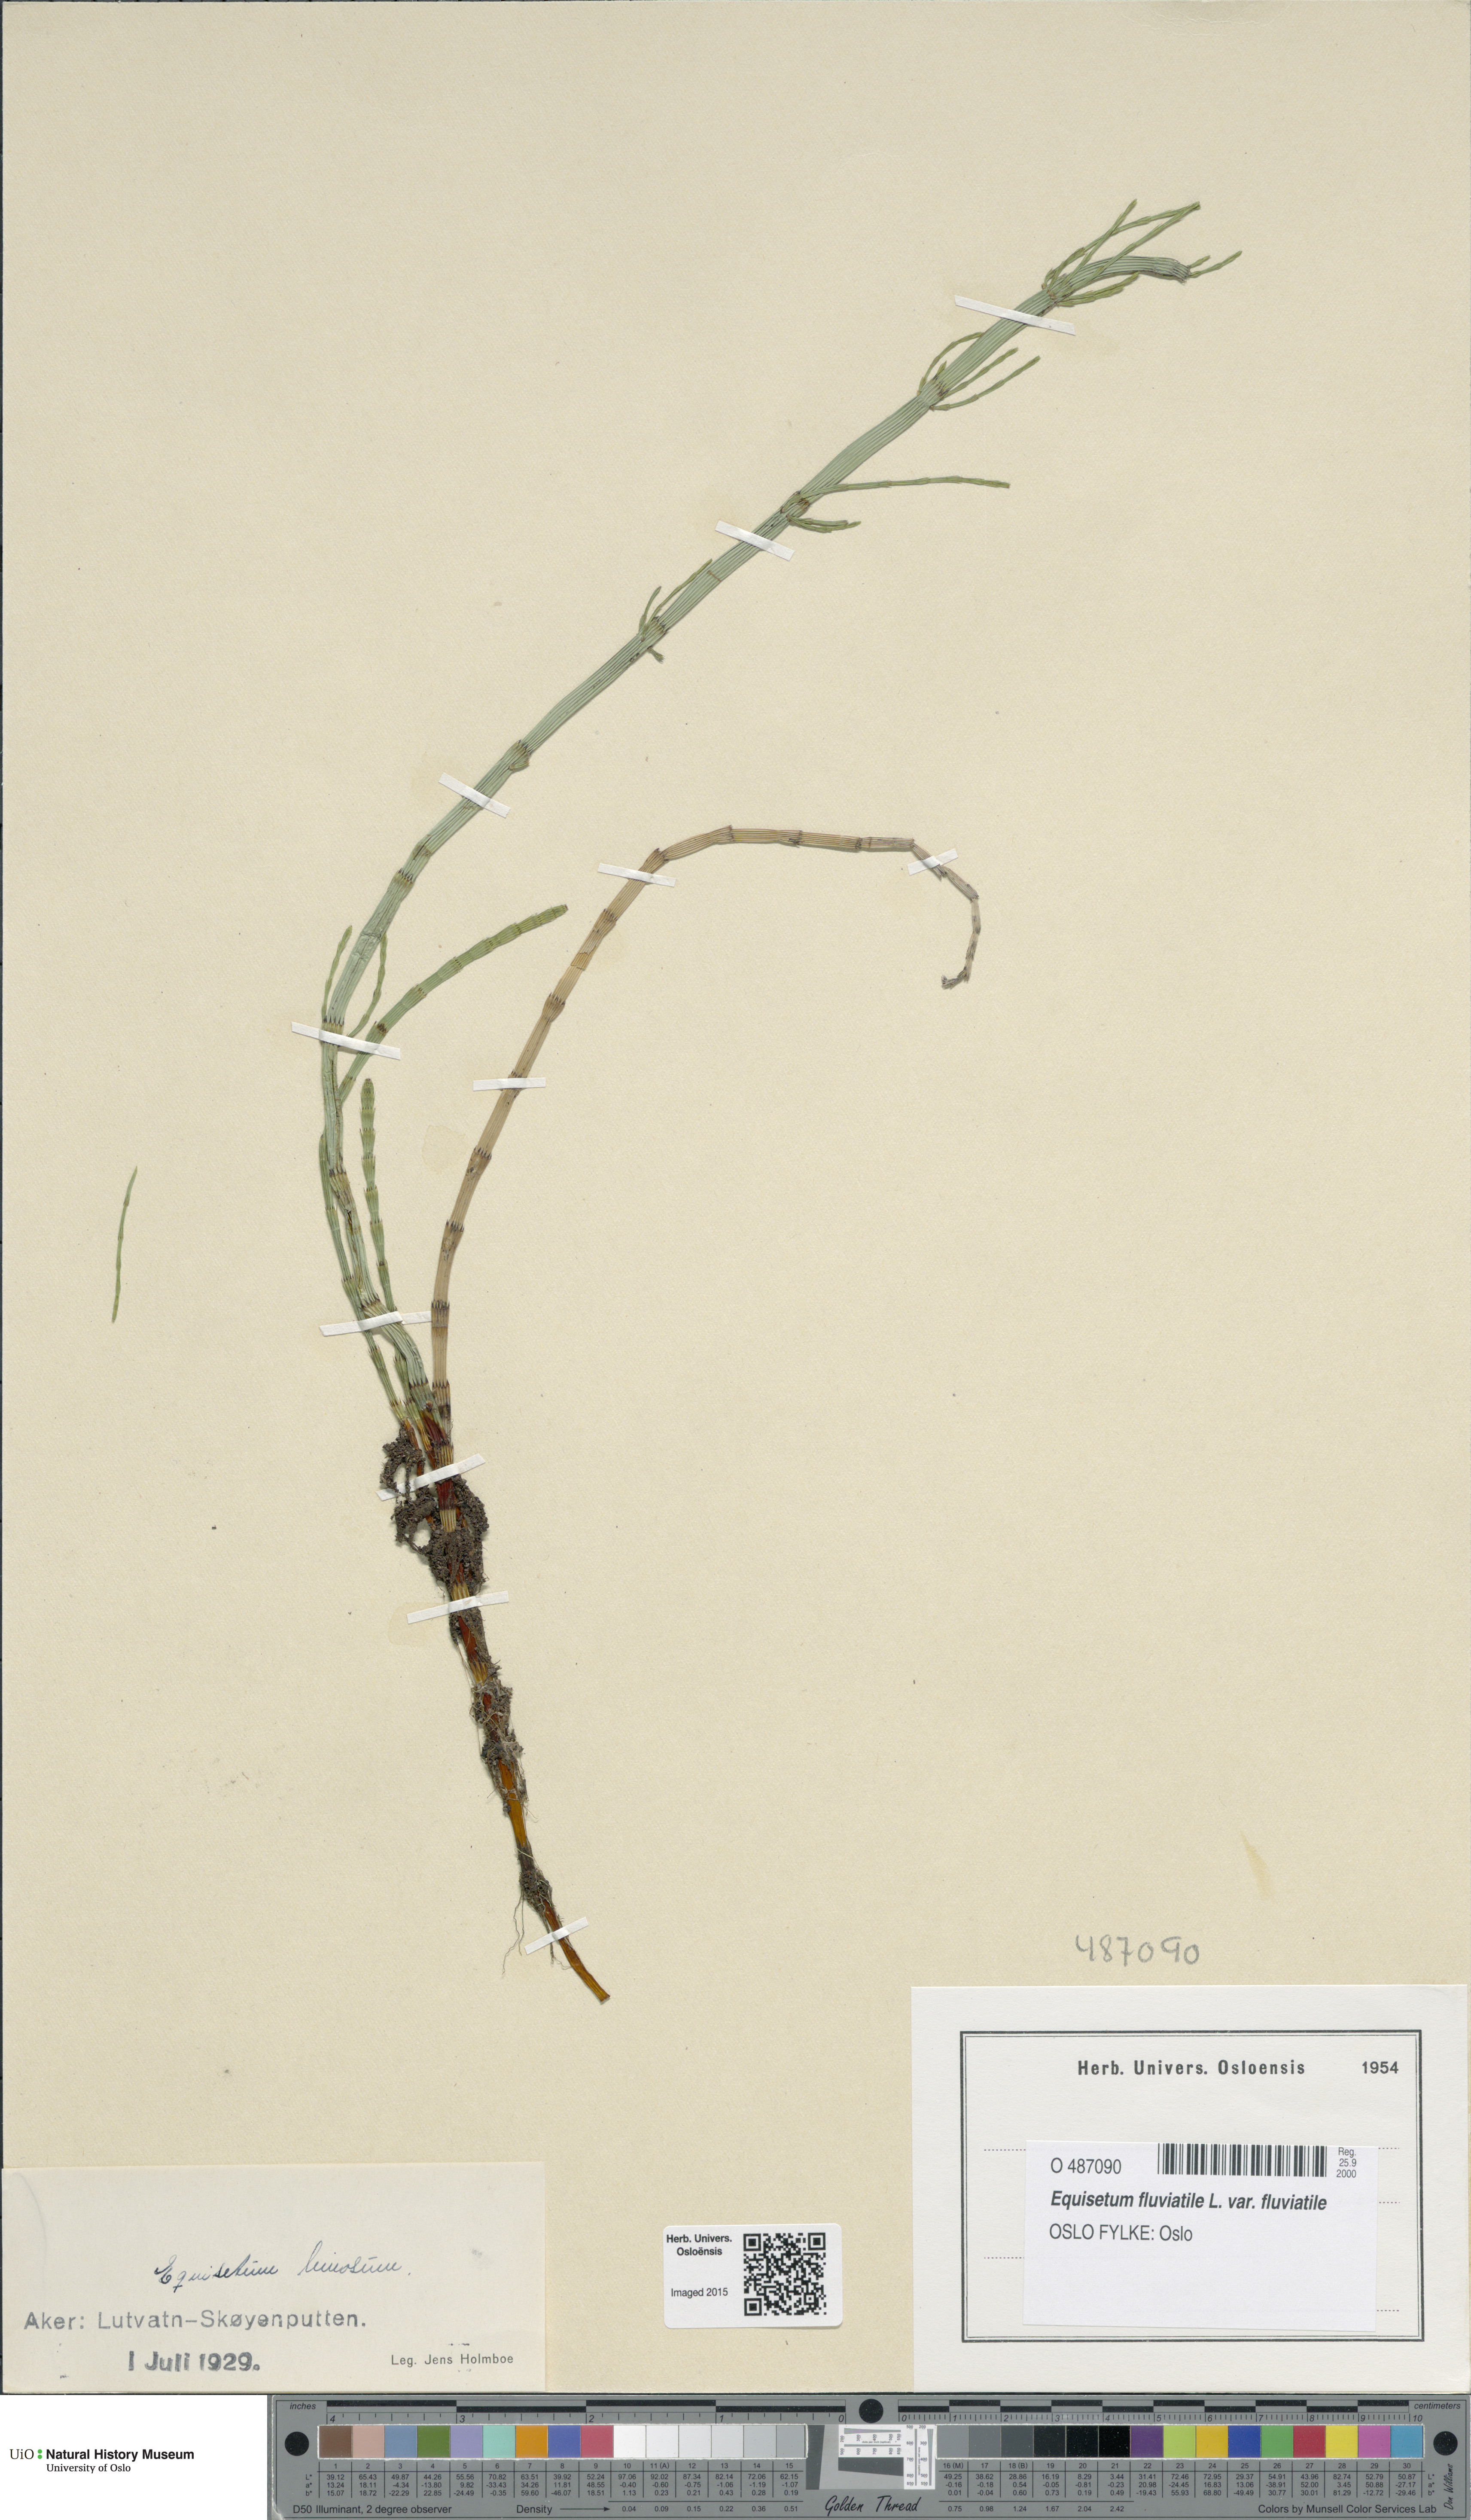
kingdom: Plantae
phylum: Tracheophyta
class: Polypodiopsida
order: Equisetales
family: Equisetaceae
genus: Equisetum
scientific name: Equisetum fluviatile
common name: Water horsetail
